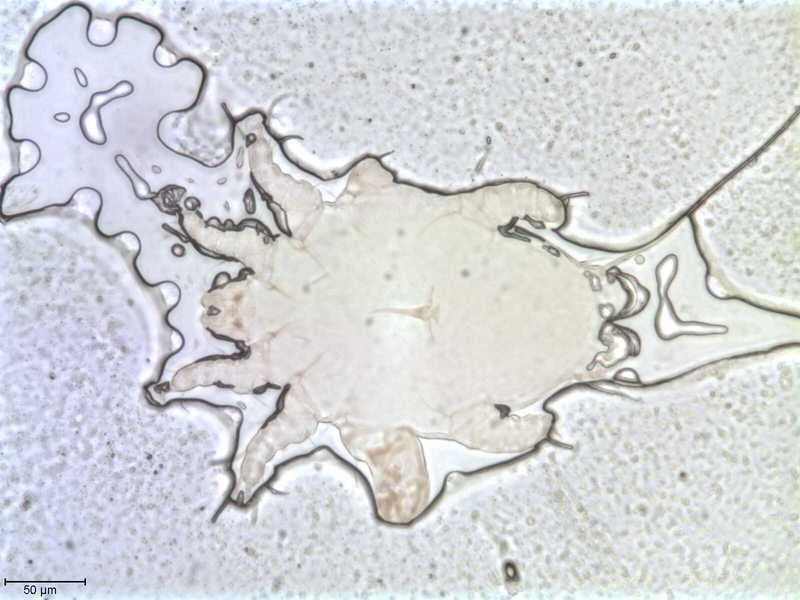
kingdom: Animalia
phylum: Arthropoda
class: Arachnida
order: Sarcoptiformes
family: Myocoptidae
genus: Gliricoptes
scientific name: Gliricoptes
